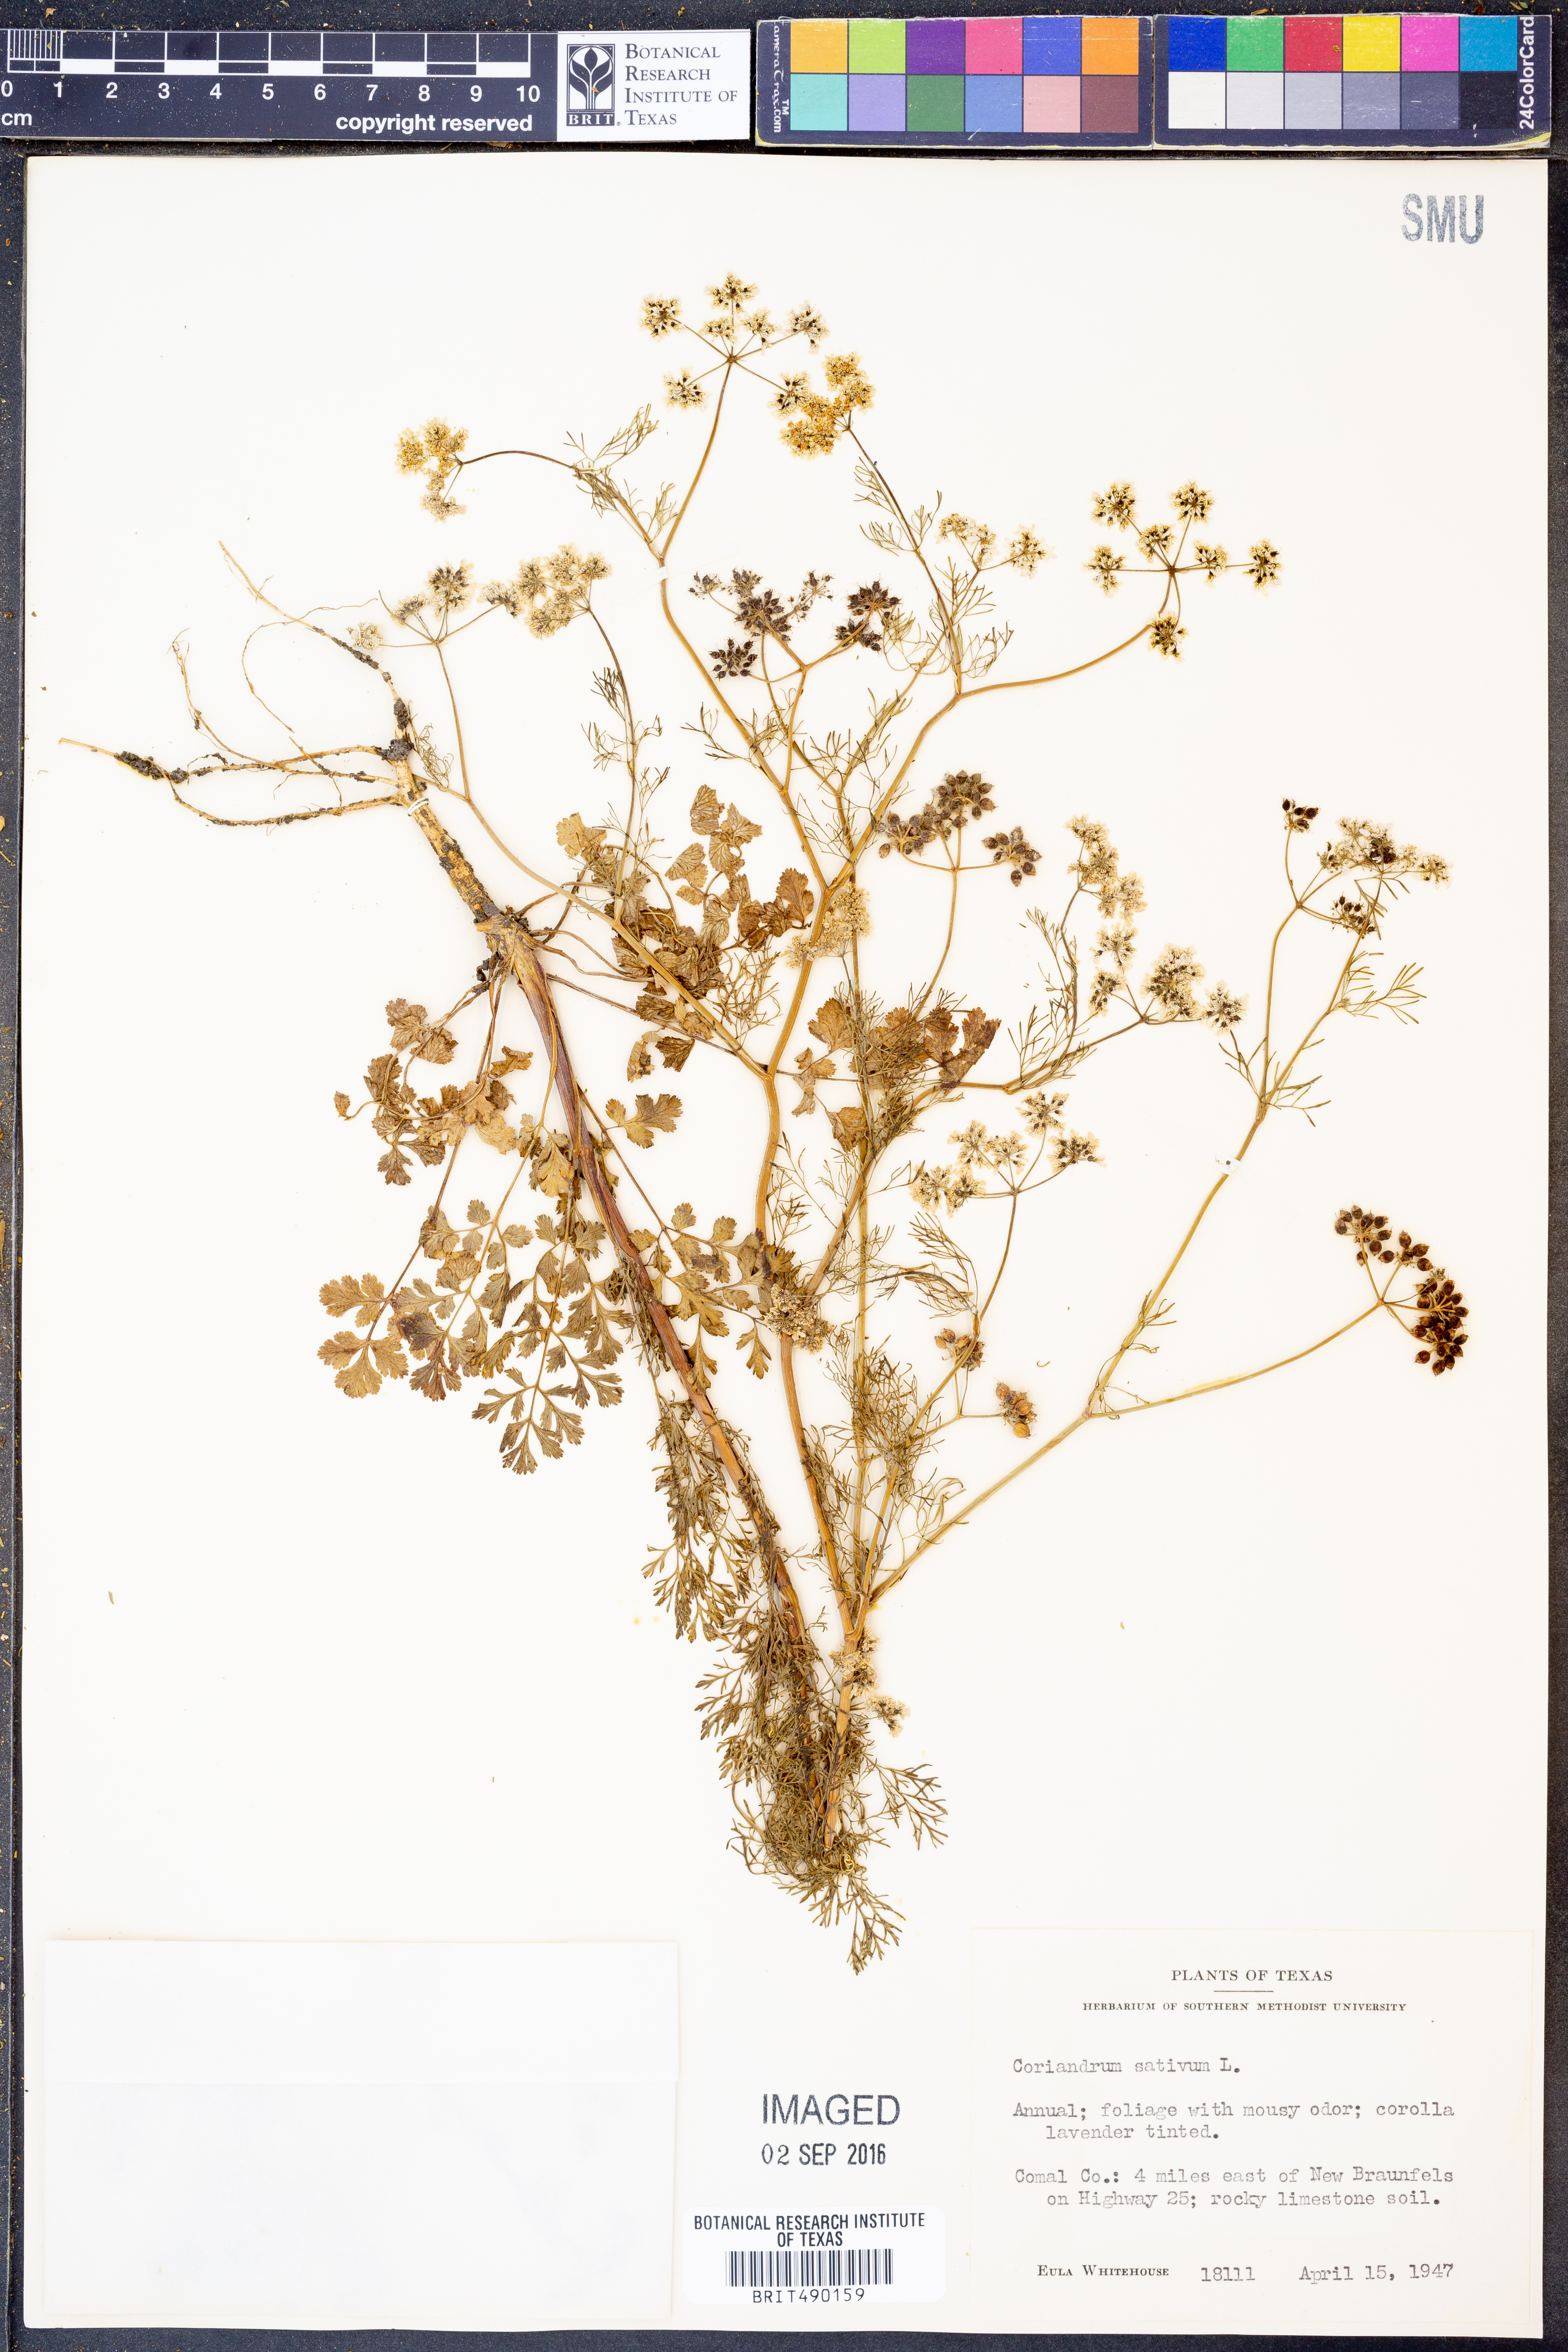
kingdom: Plantae
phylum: Tracheophyta
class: Magnoliopsida
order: Apiales
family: Apiaceae
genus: Coriandrum
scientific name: Coriandrum sativum
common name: Coriander
